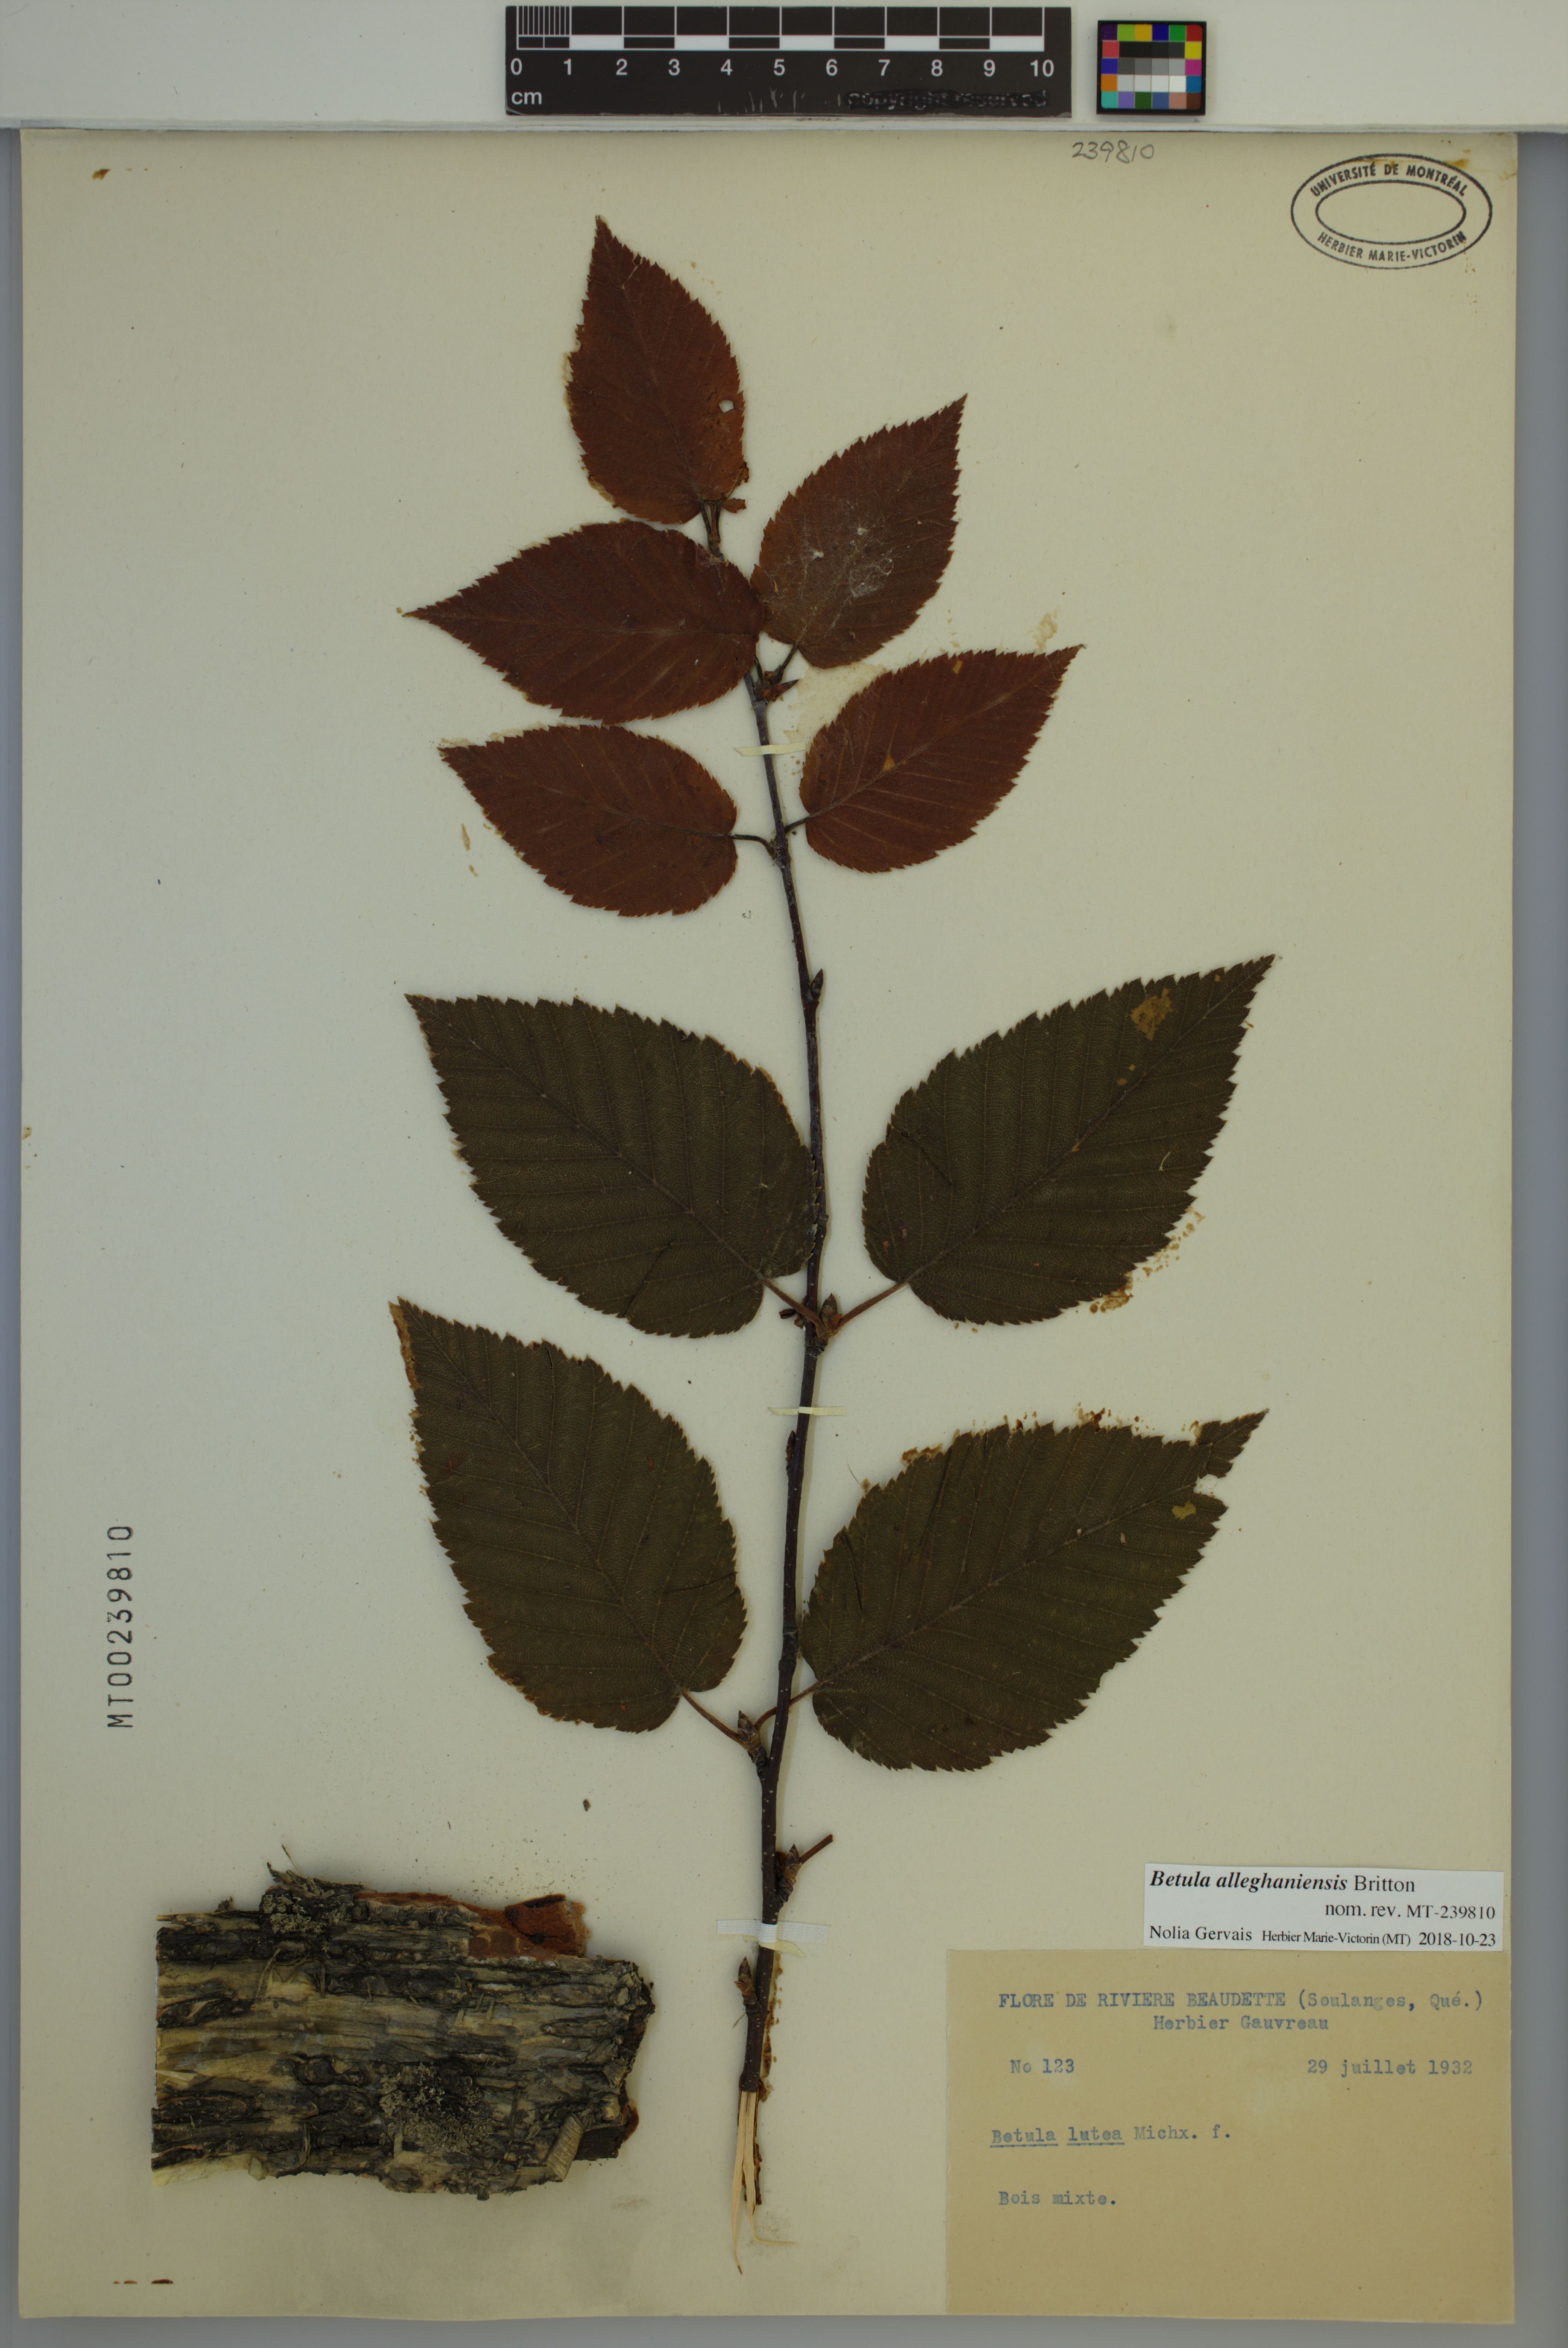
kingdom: Plantae
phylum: Tracheophyta
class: Magnoliopsida
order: Fagales
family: Betulaceae
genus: Betula
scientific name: Betula alleghaniensis
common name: Yellow birch
